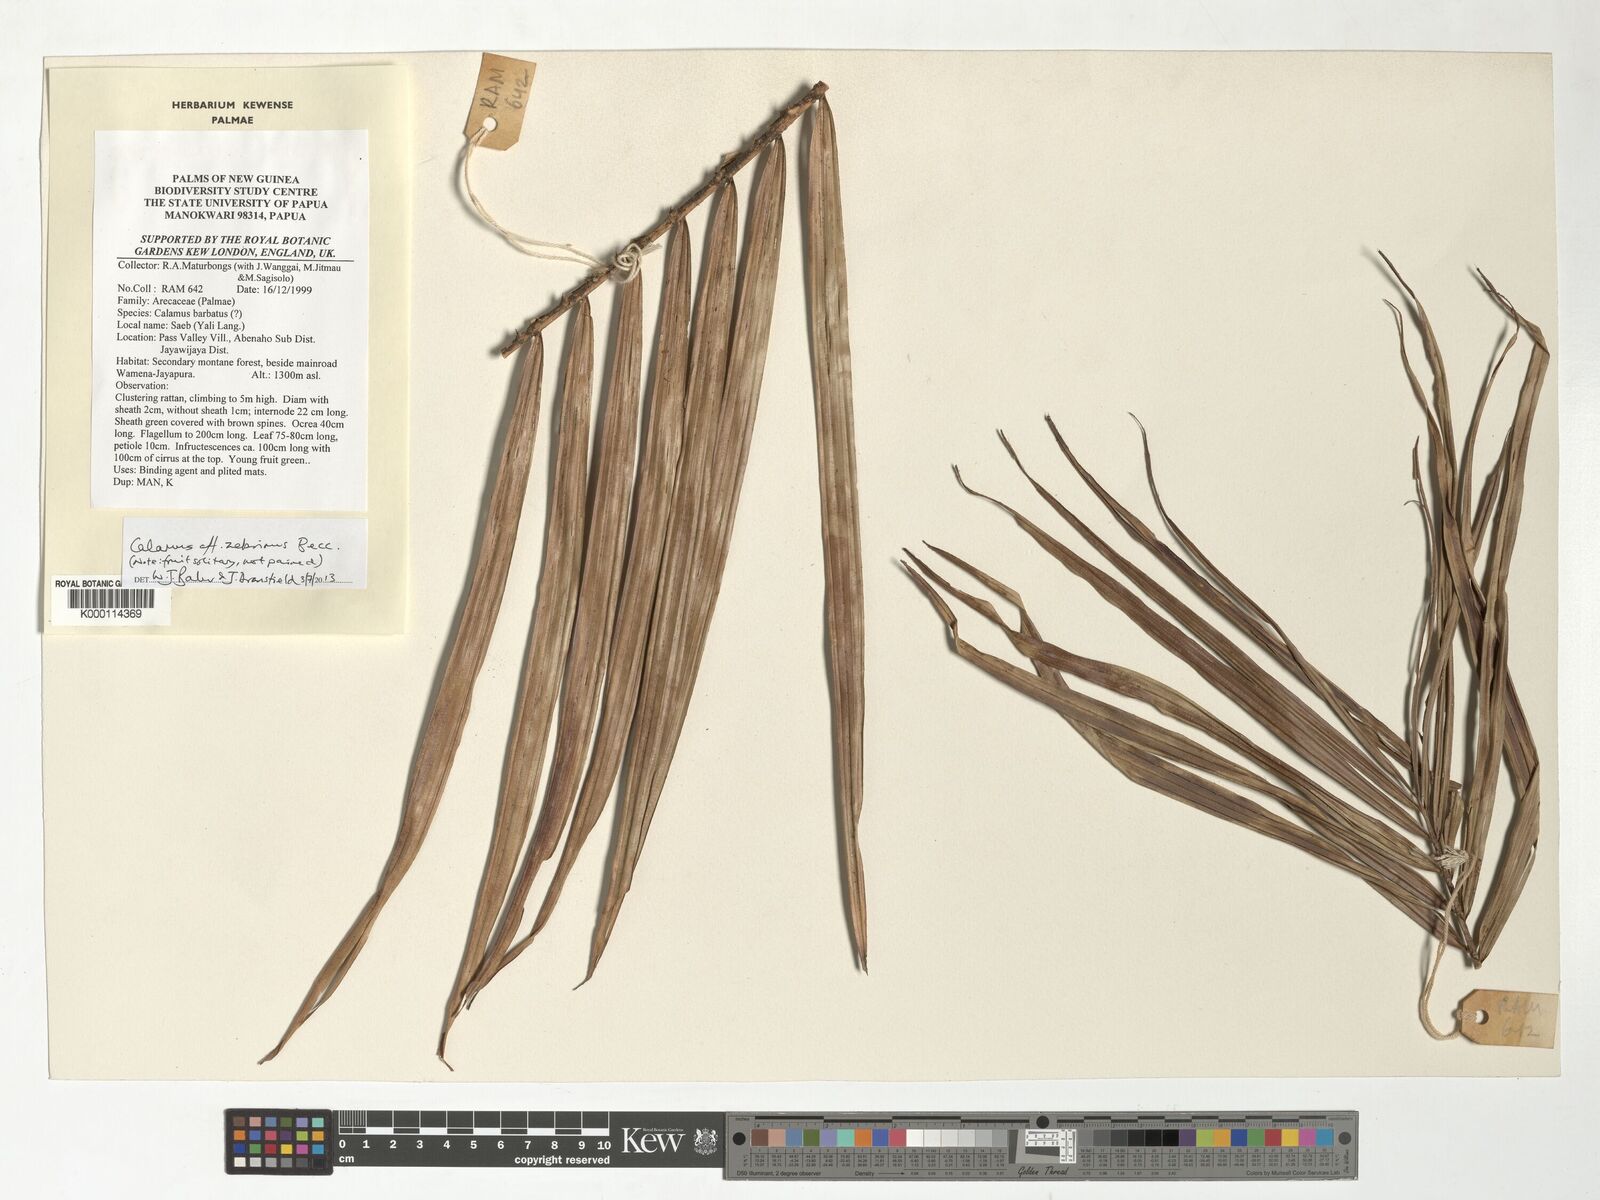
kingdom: Plantae
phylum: Tracheophyta
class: Liliopsida
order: Arecales
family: Arecaceae
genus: Calamus
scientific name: Calamus zebrinus
